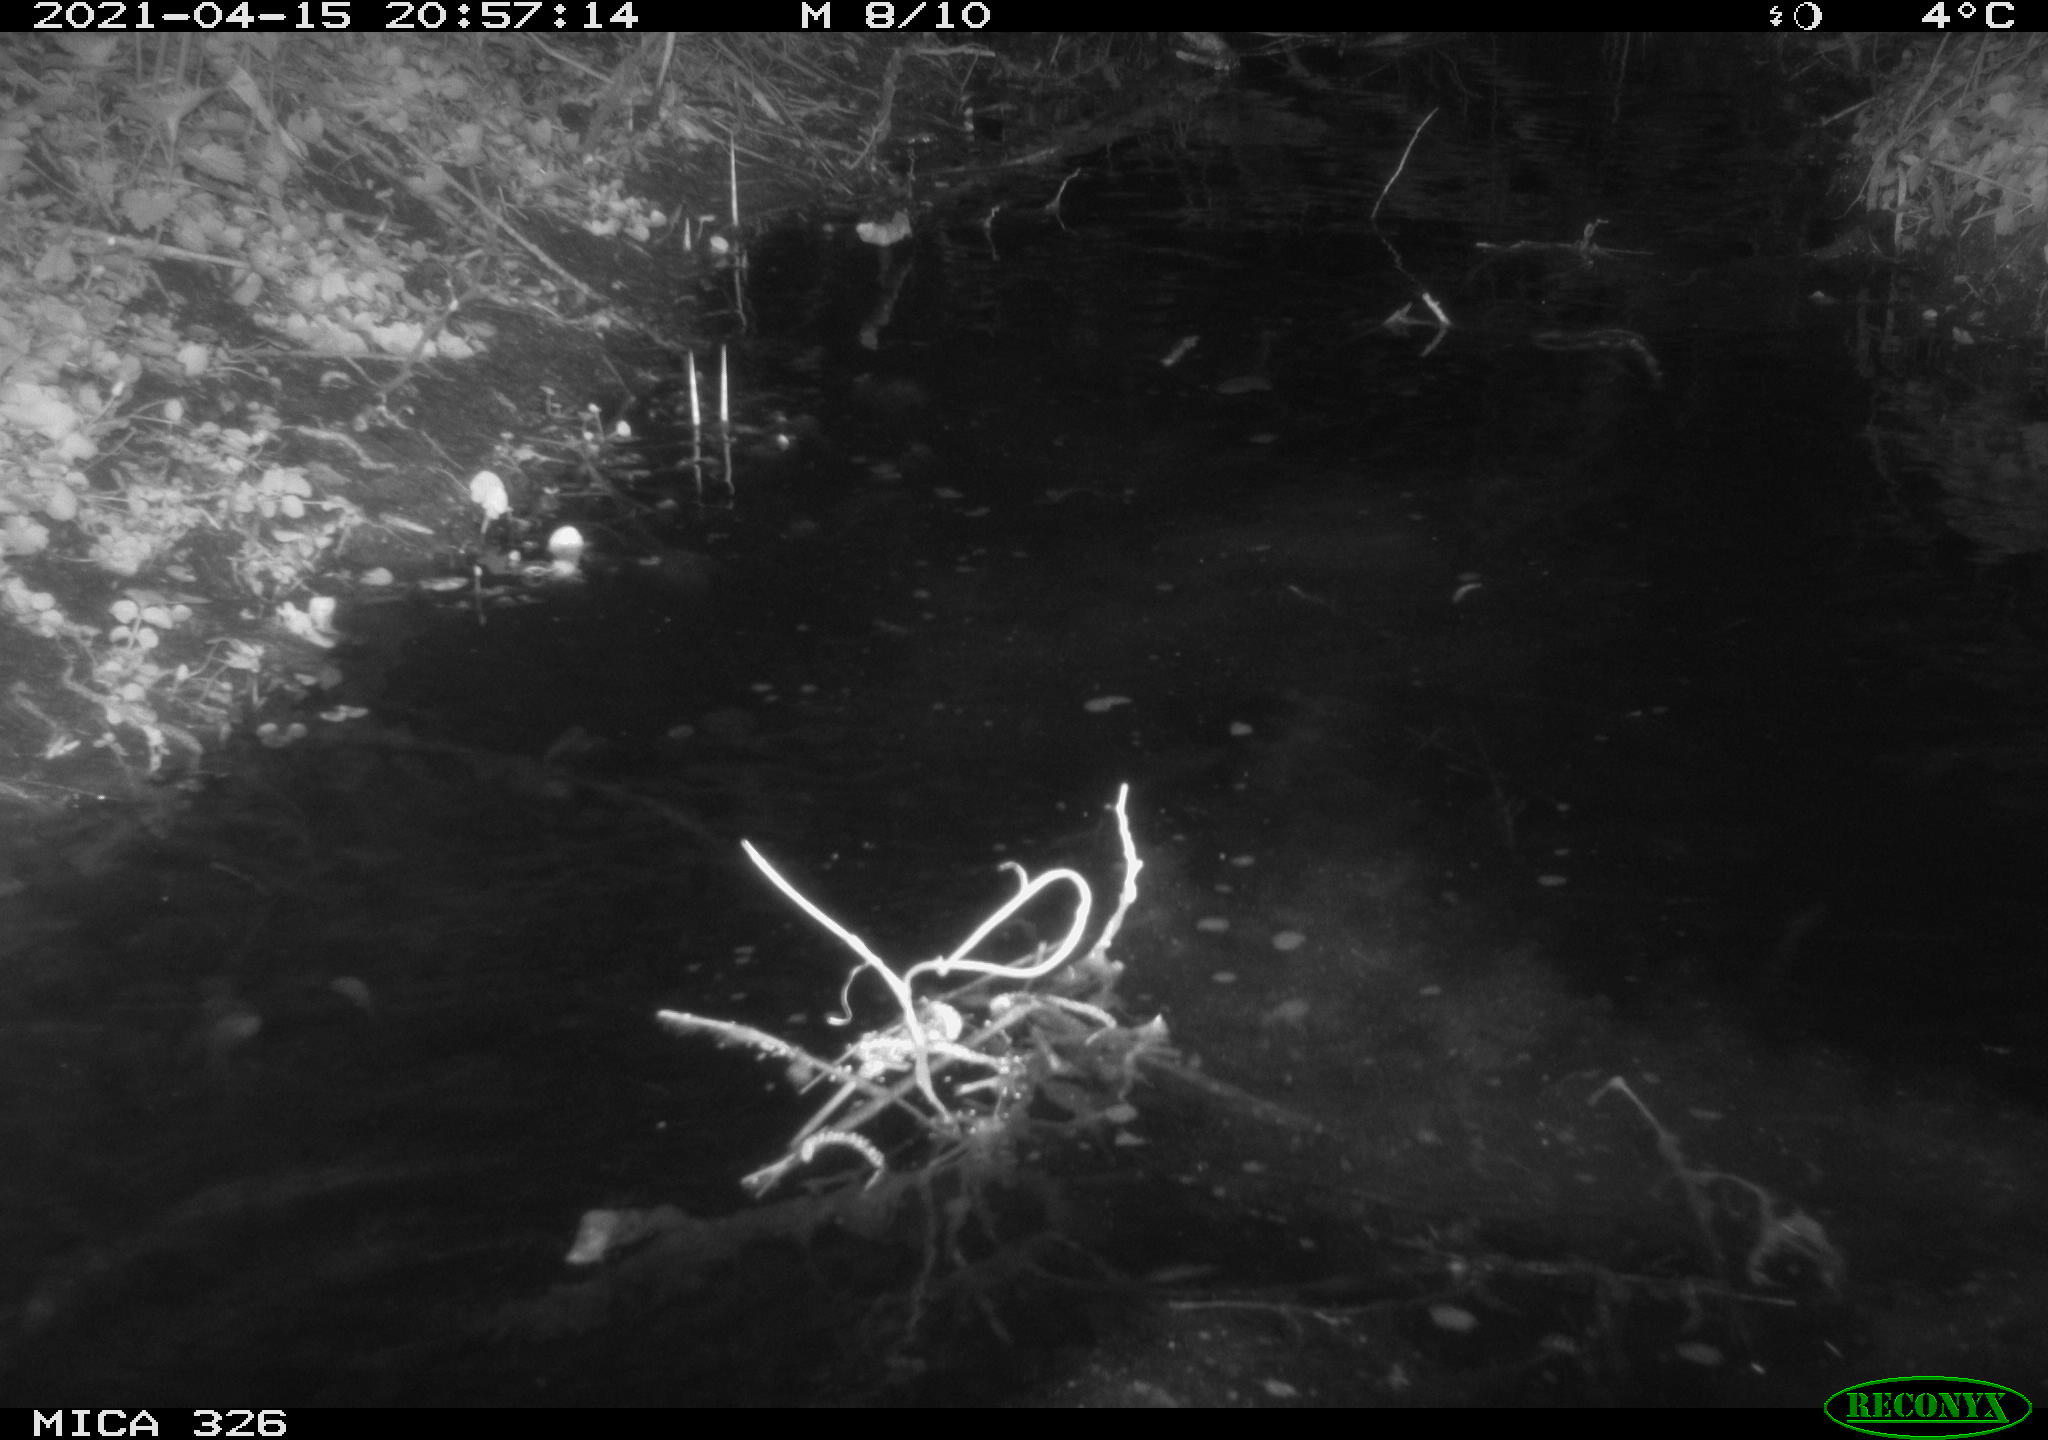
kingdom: Animalia
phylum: Chordata
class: Mammalia
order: Rodentia
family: Myocastoridae
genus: Myocastor
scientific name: Myocastor coypus
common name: Coypu
